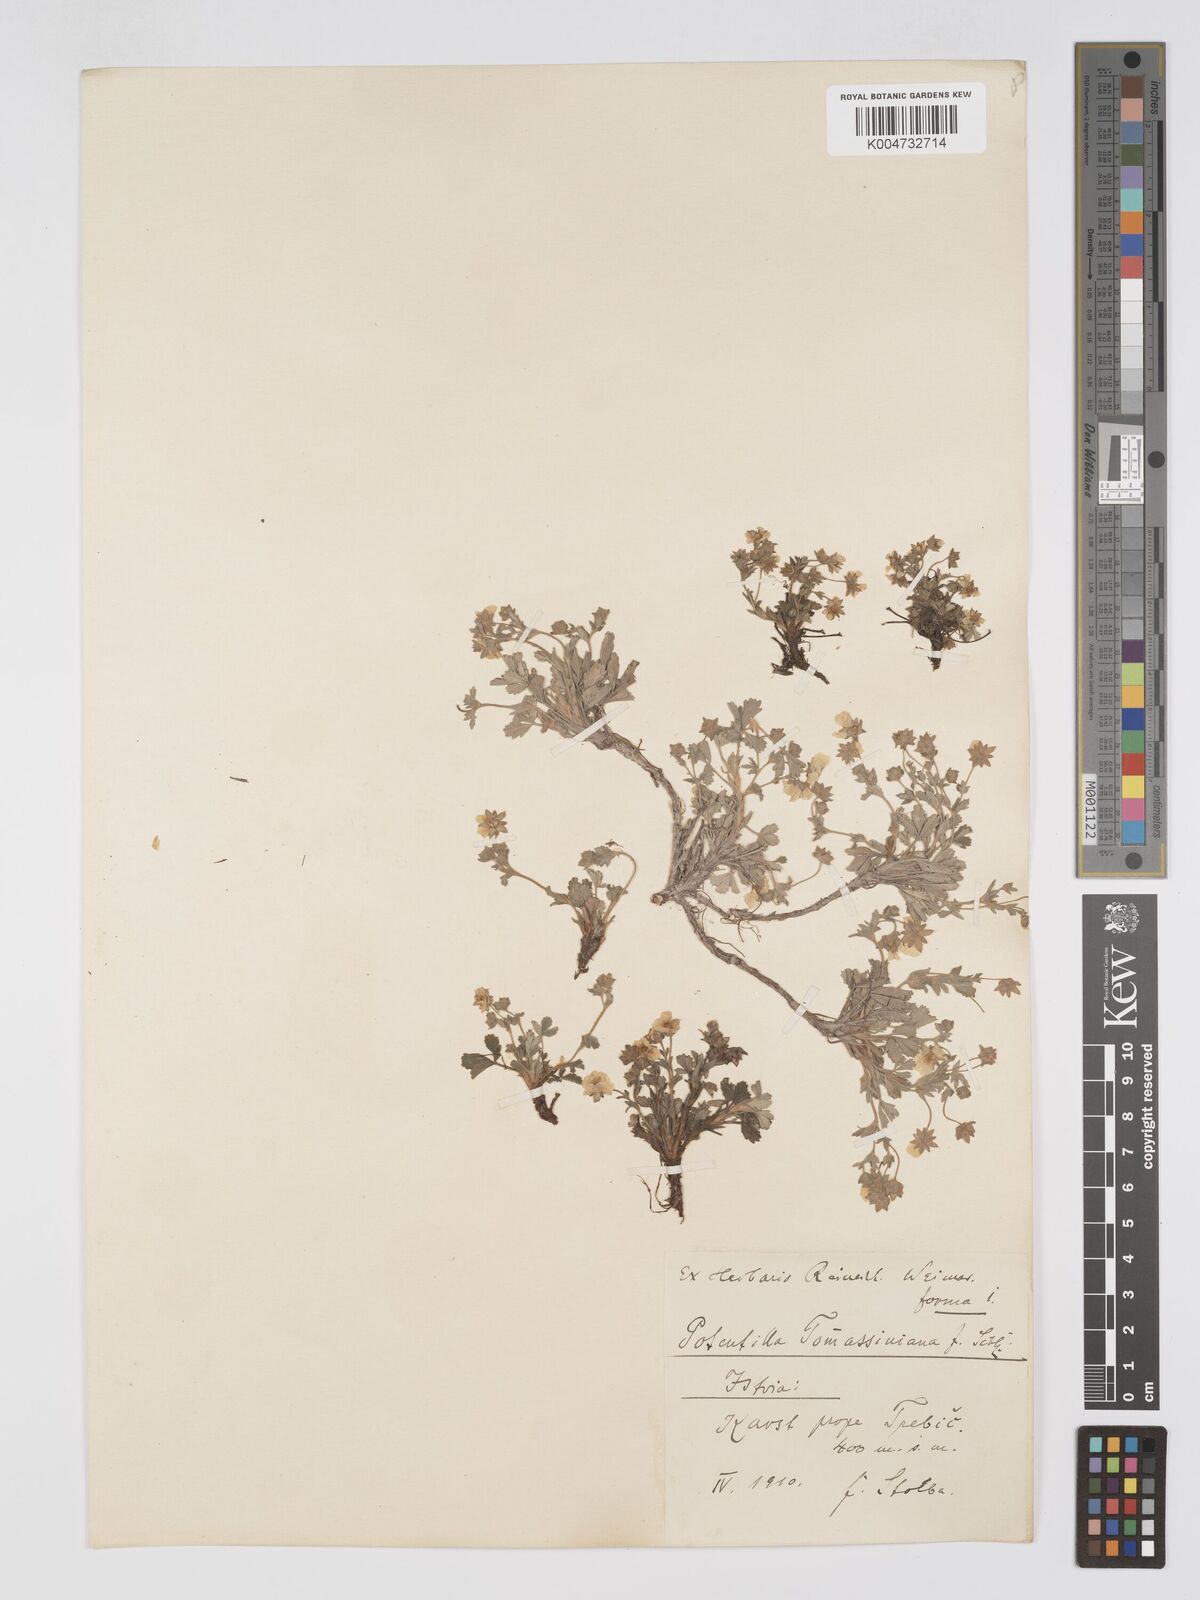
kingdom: Plantae
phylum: Tracheophyta
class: Magnoliopsida
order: Rosales
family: Rosaceae
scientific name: Rosaceae
